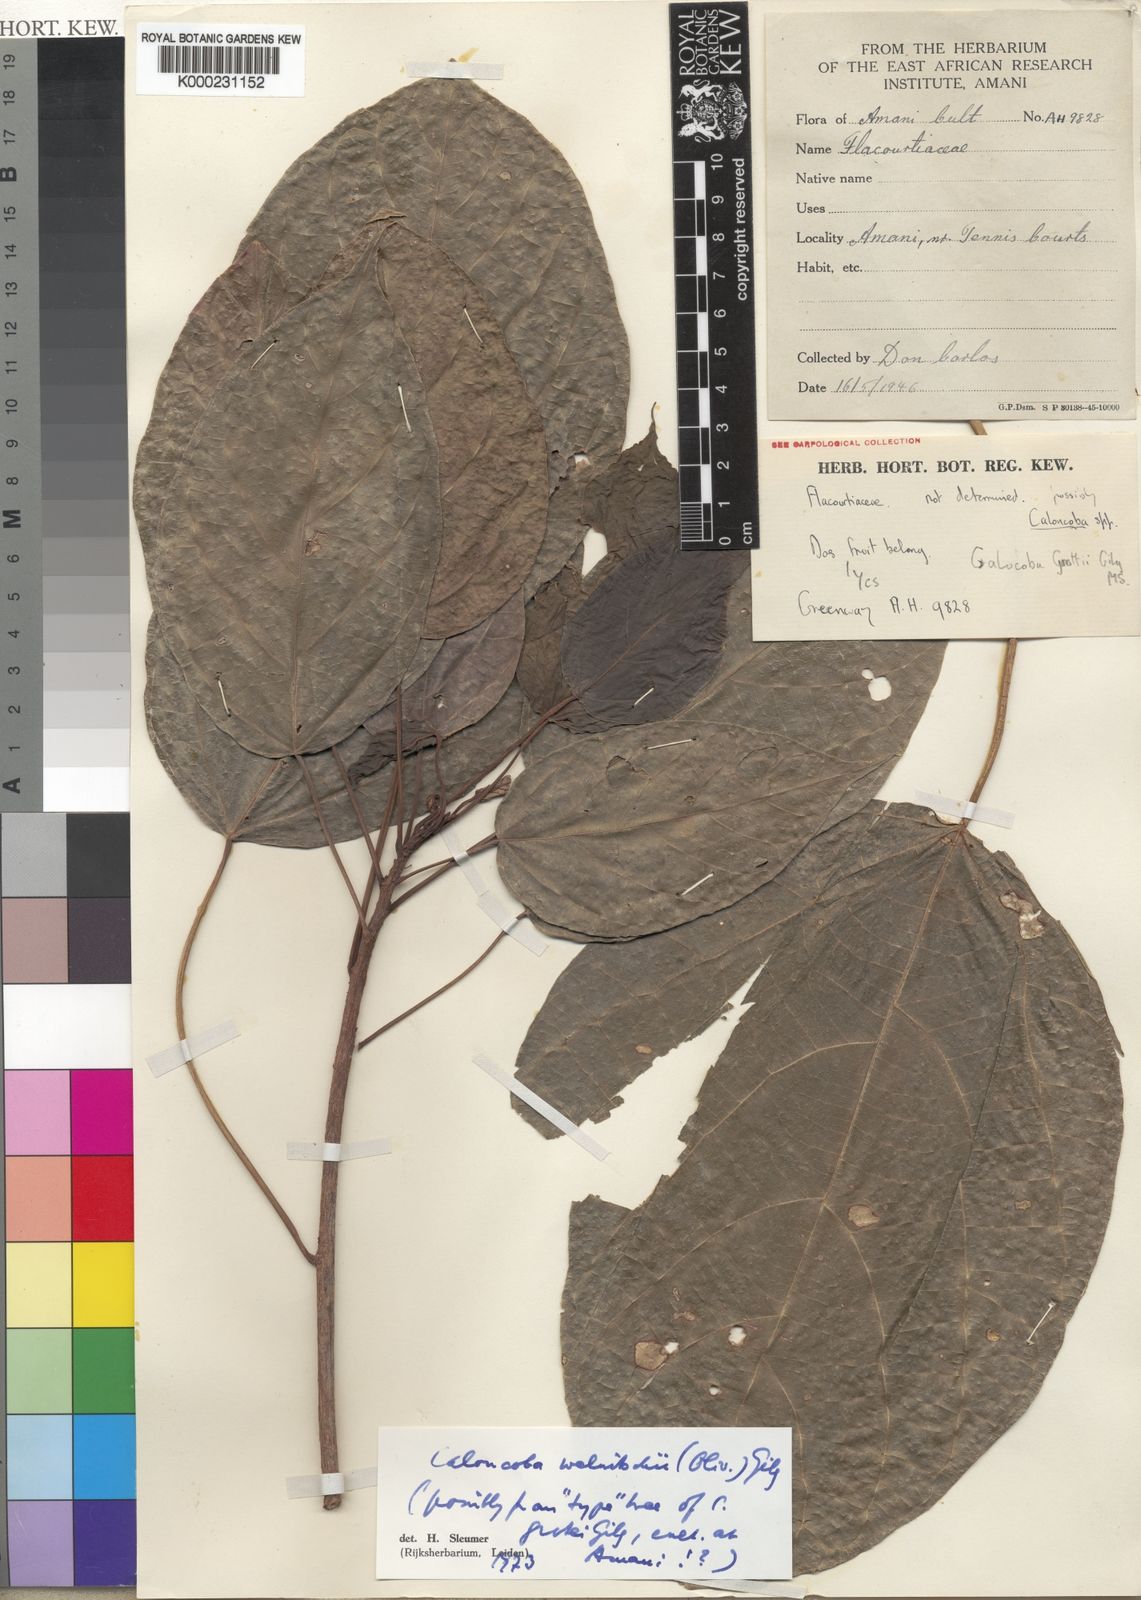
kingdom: Plantae
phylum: Tracheophyta
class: Magnoliopsida
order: Malpighiales
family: Achariaceae
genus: Caloncoba
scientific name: Caloncoba welwitschii
